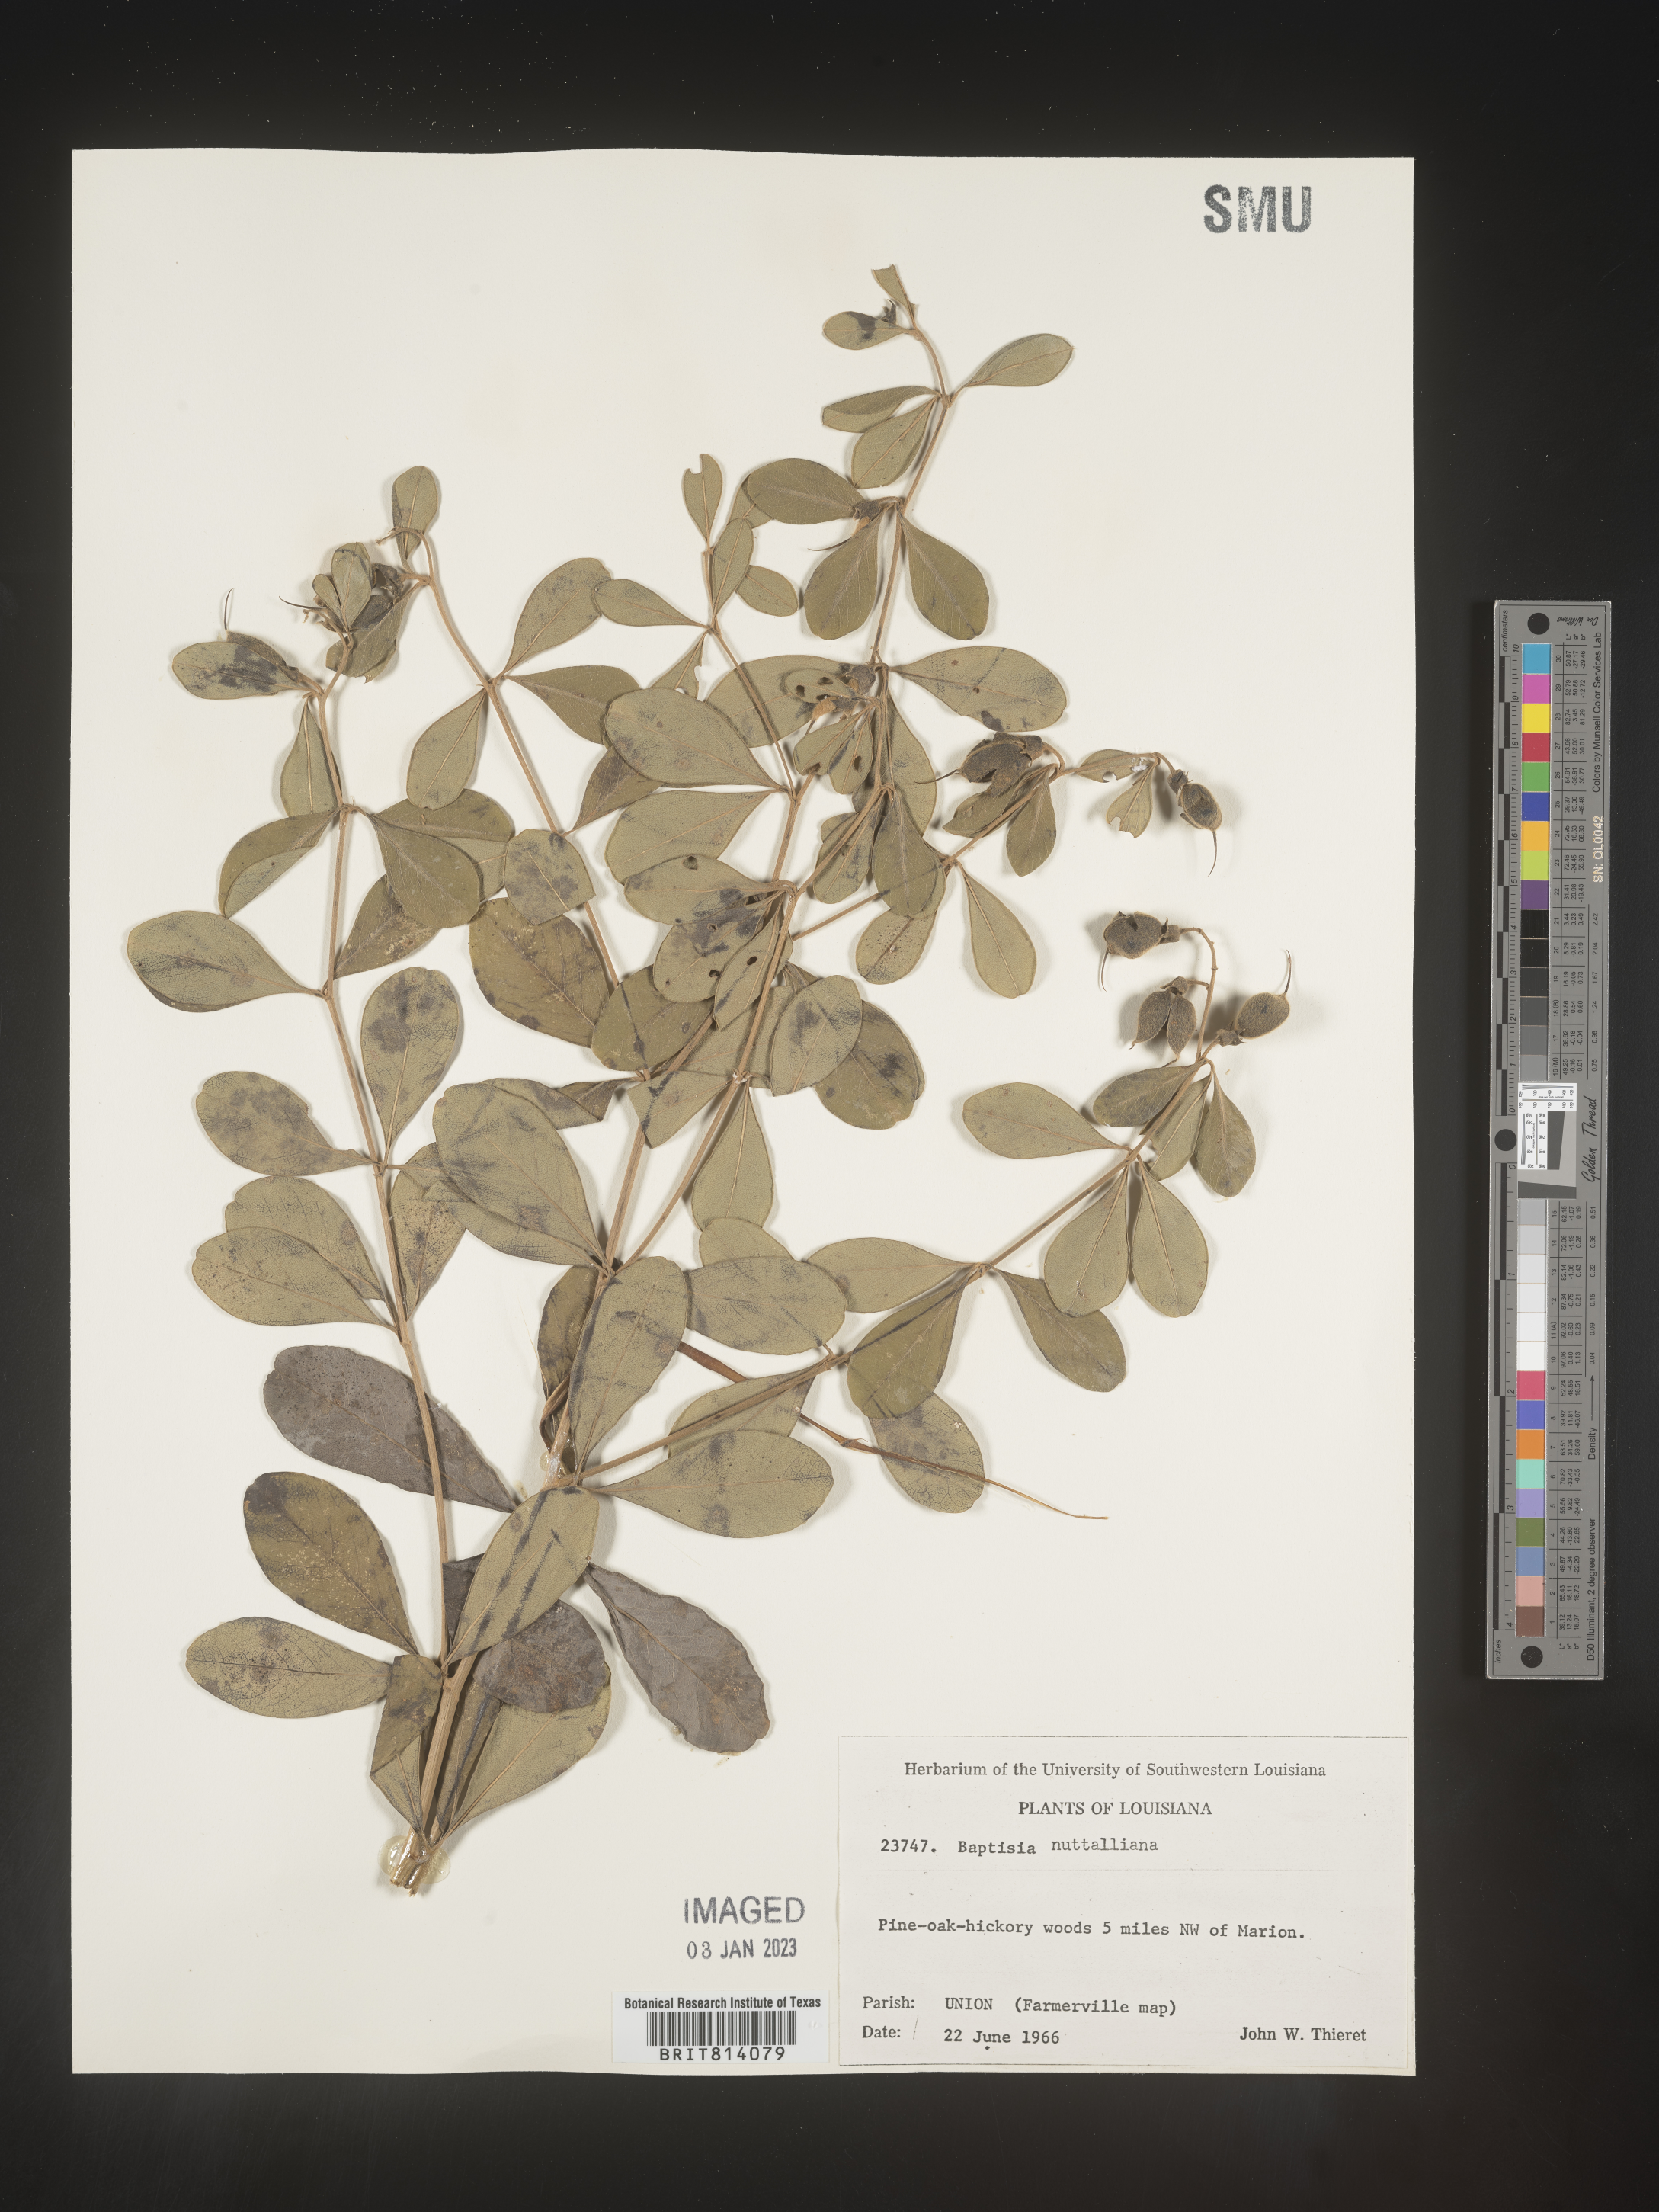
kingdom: Plantae
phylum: Tracheophyta
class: Magnoliopsida
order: Fabales
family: Fabaceae
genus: Baptisia
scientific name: Baptisia nuttalliana
